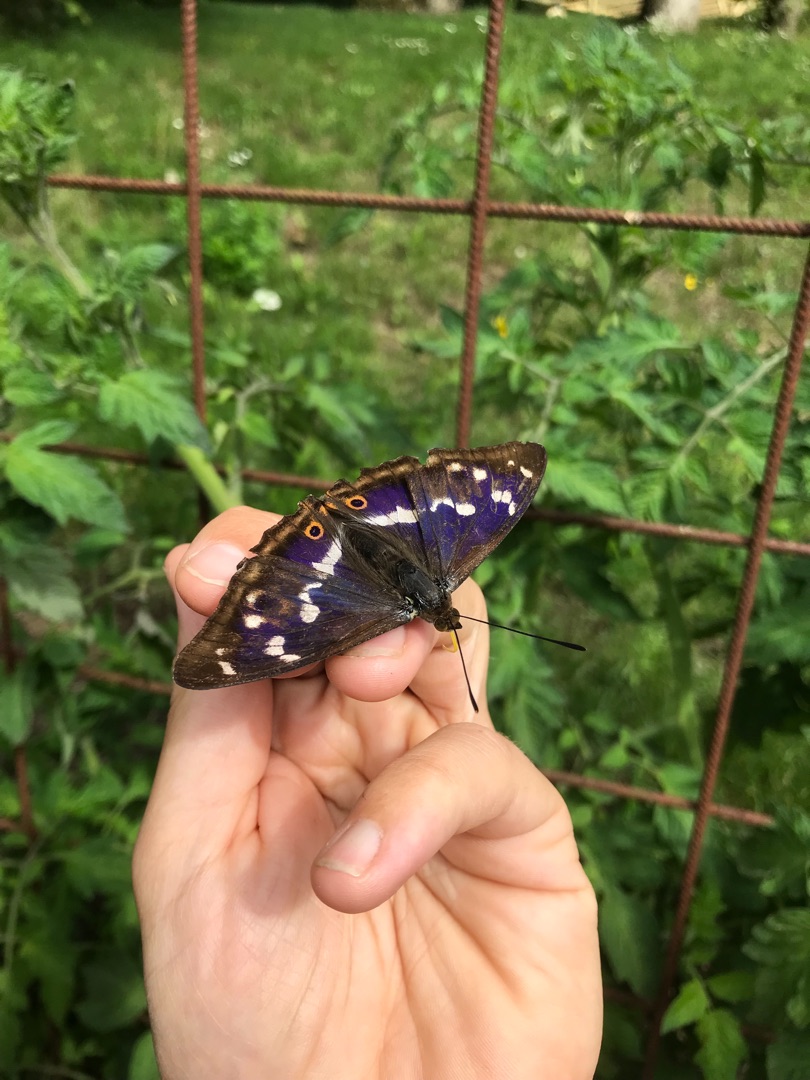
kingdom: Animalia
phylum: Arthropoda
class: Insecta
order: Lepidoptera
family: Nymphalidae
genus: Apatura
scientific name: Apatura iris
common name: Iris
